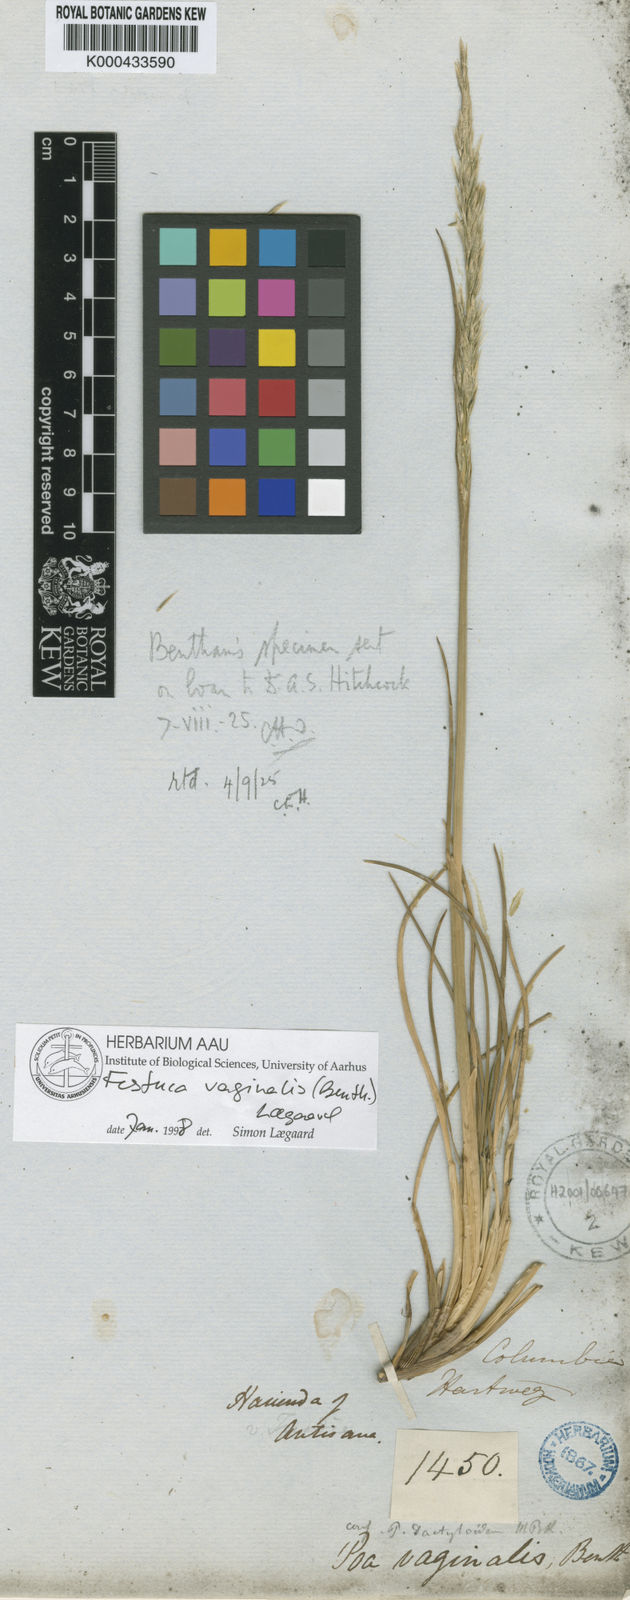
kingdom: Plantae
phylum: Tracheophyta
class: Liliopsida
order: Poales
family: Poaceae
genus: Festuca
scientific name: Festuca vaginalis
